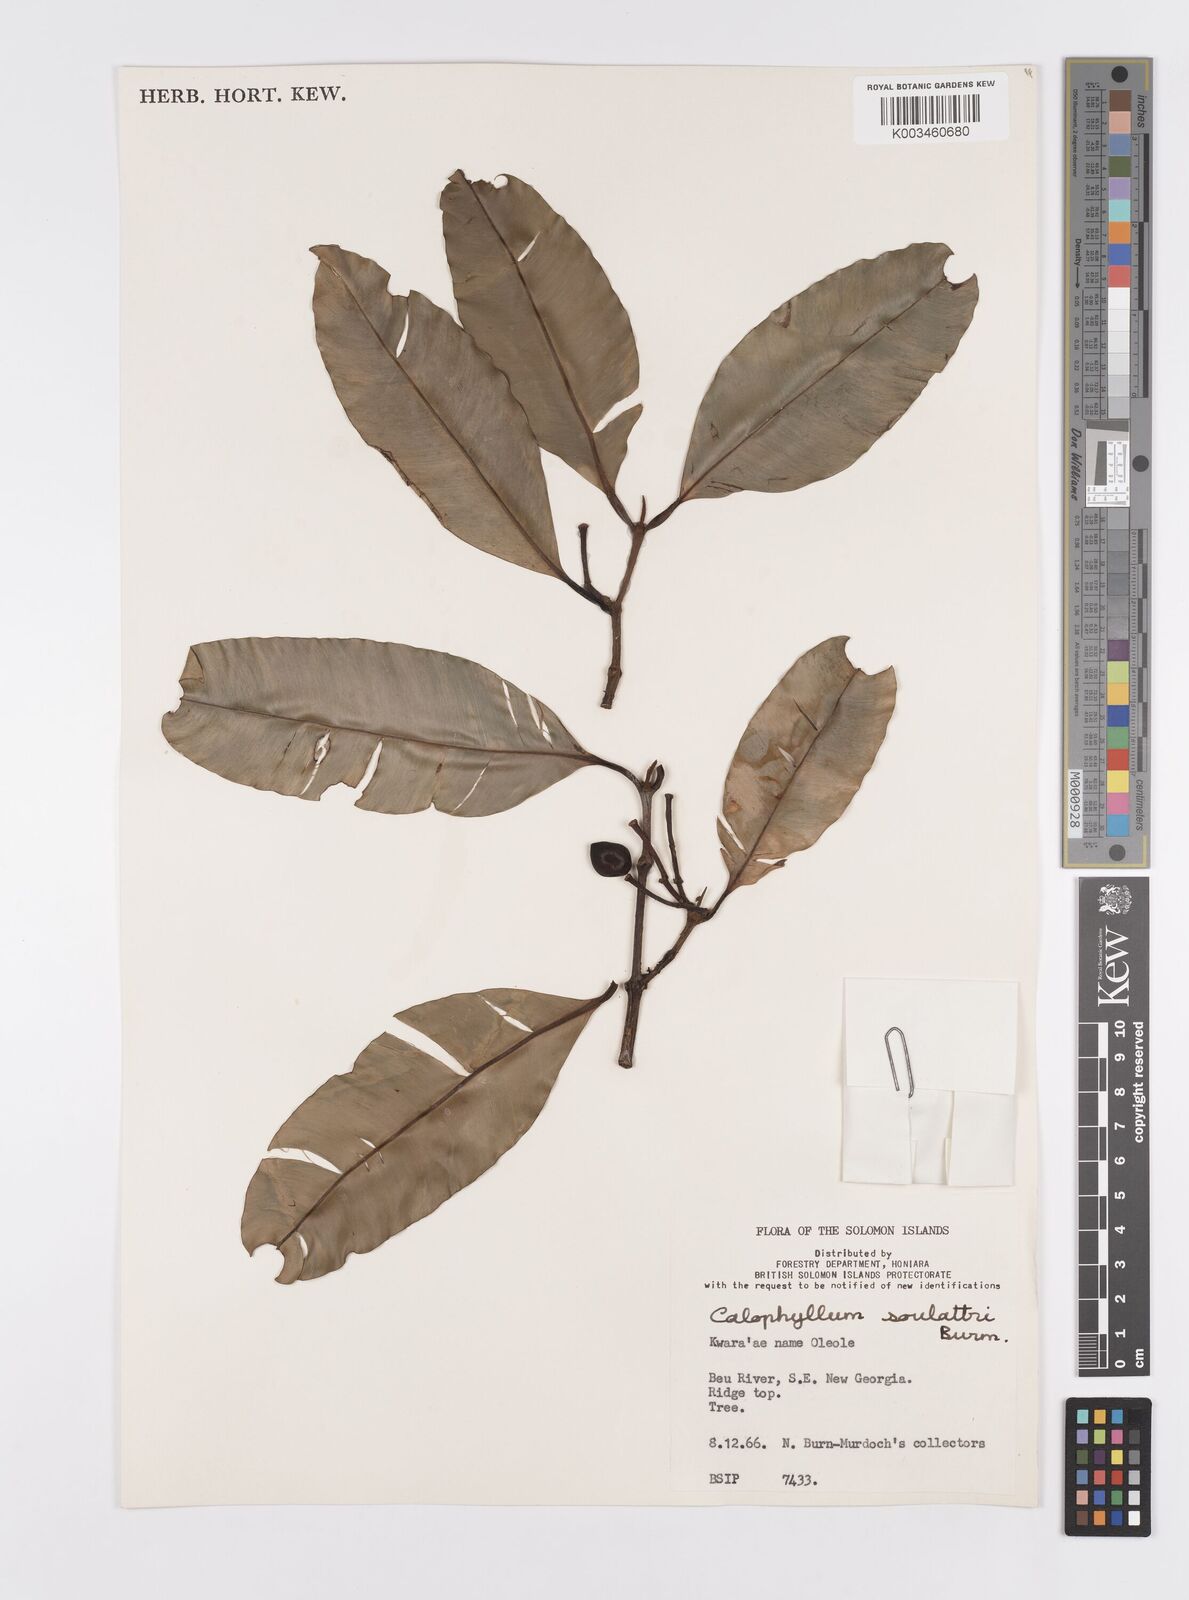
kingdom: Plantae
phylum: Tracheophyta
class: Magnoliopsida
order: Malpighiales
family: Calophyllaceae
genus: Calophyllum
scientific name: Calophyllum soulattri
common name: Bitangoor boonot
